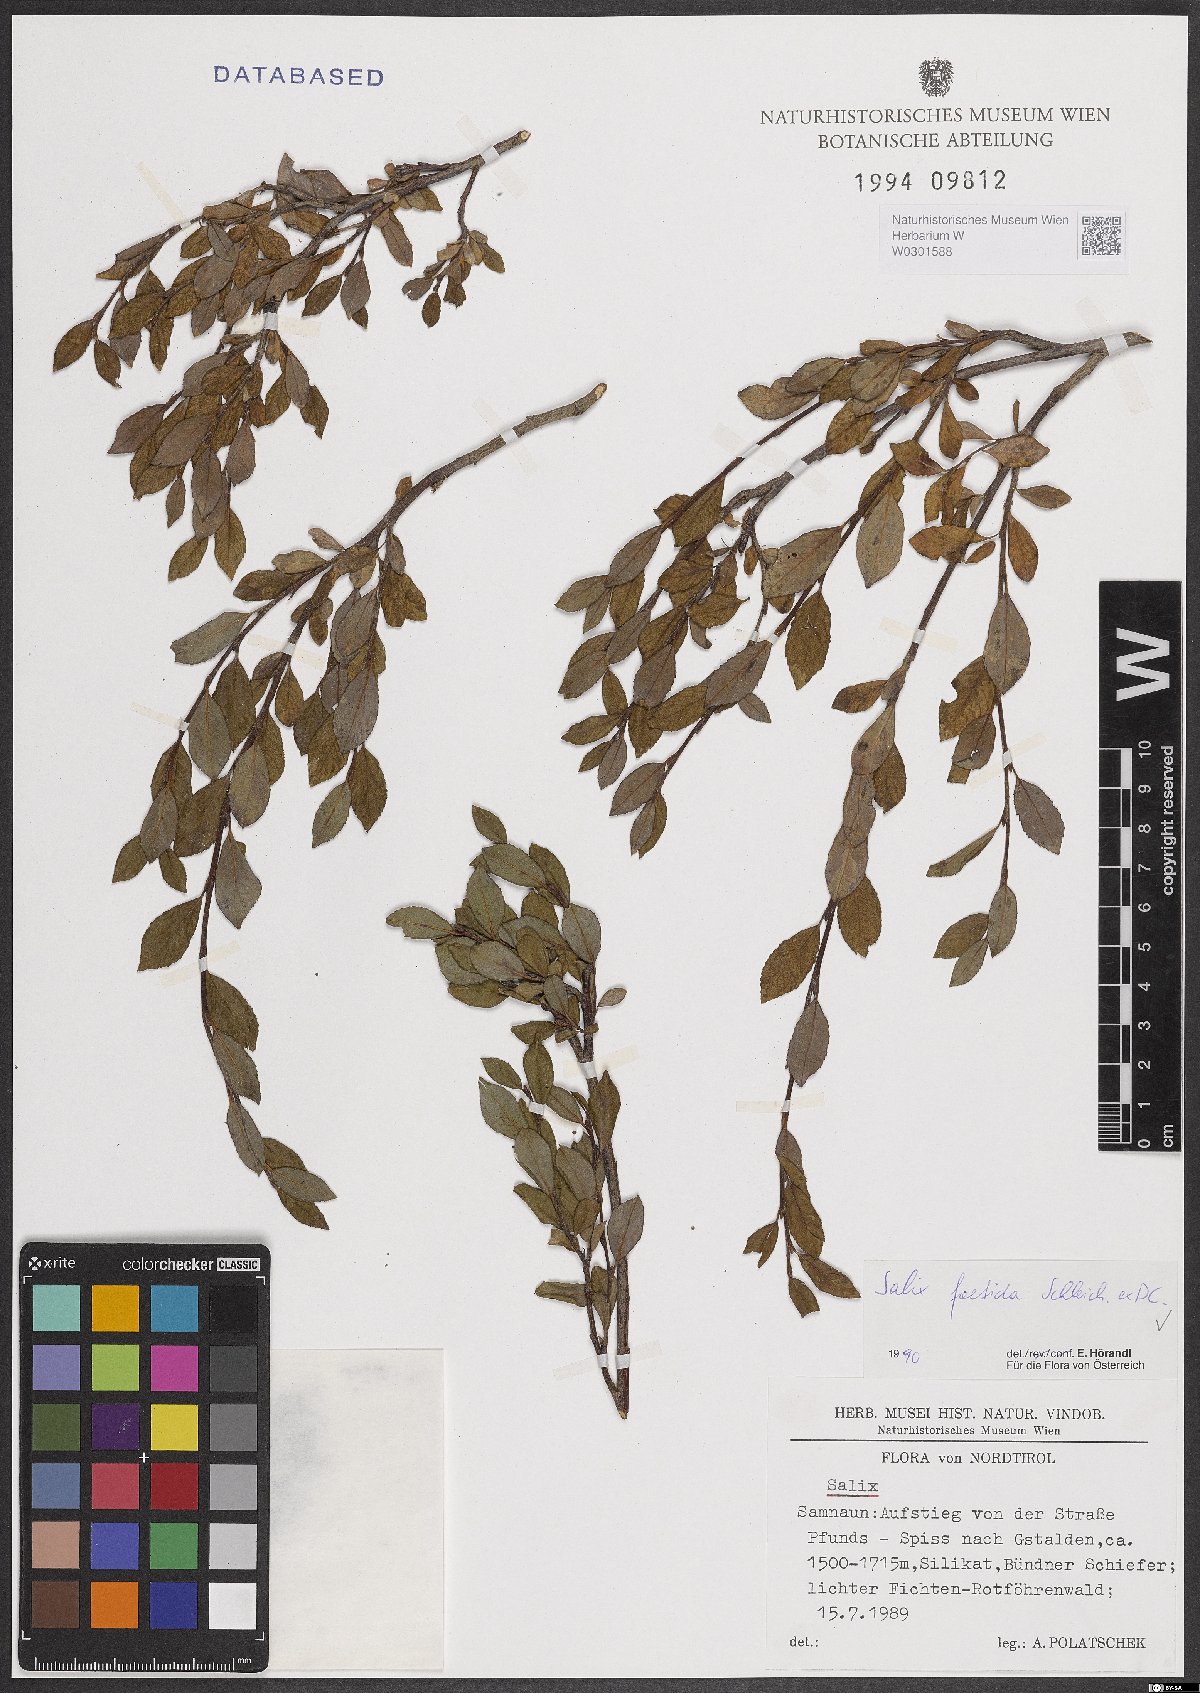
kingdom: Plantae
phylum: Tracheophyta
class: Magnoliopsida
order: Malpighiales
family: Salicaceae
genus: Salix
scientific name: Salix foetida
